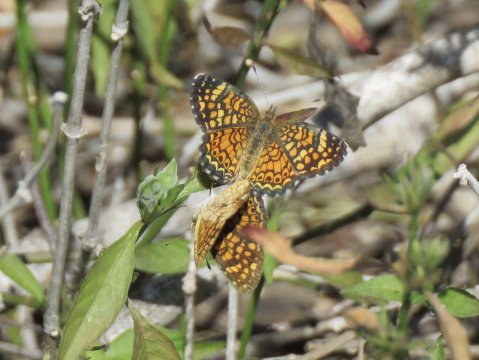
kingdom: Animalia
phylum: Arthropoda
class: Insecta
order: Lepidoptera
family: Nymphalidae
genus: Phyciodes
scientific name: Phyciodes vesta
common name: Vesta Crescent
